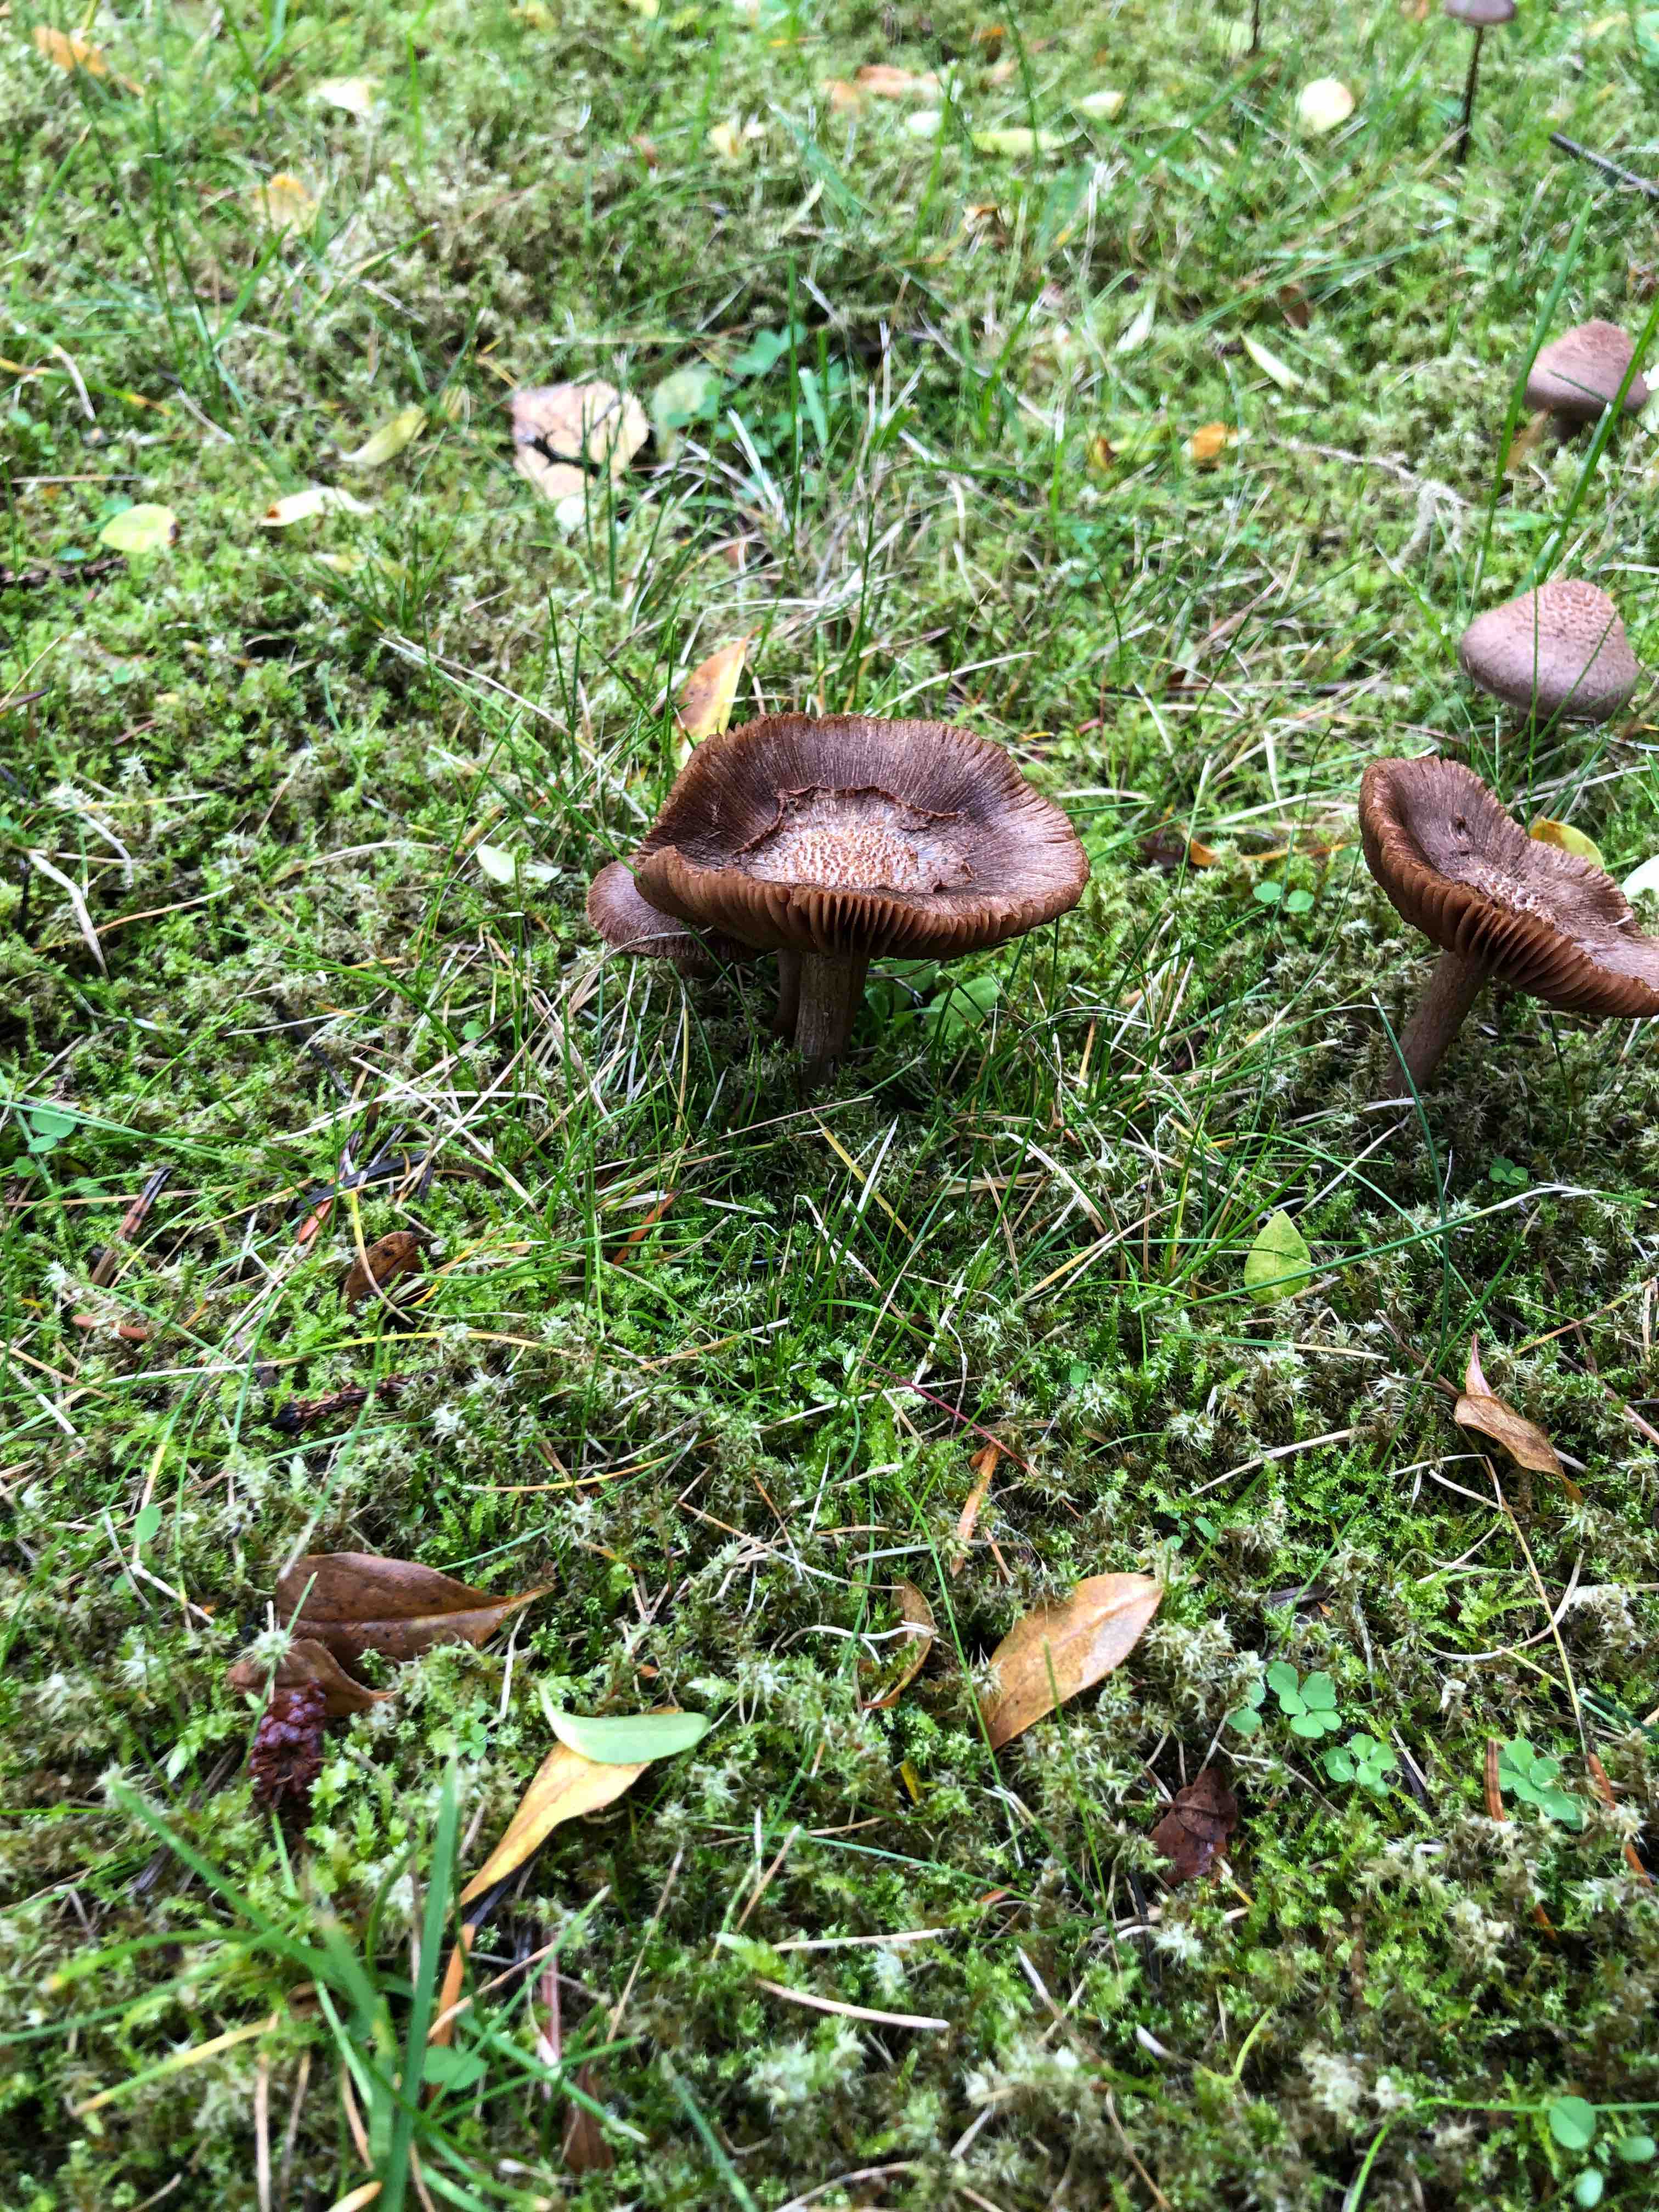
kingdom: Fungi
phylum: Basidiomycota
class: Agaricomycetes
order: Agaricales
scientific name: Agaricales
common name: champignonordenen
